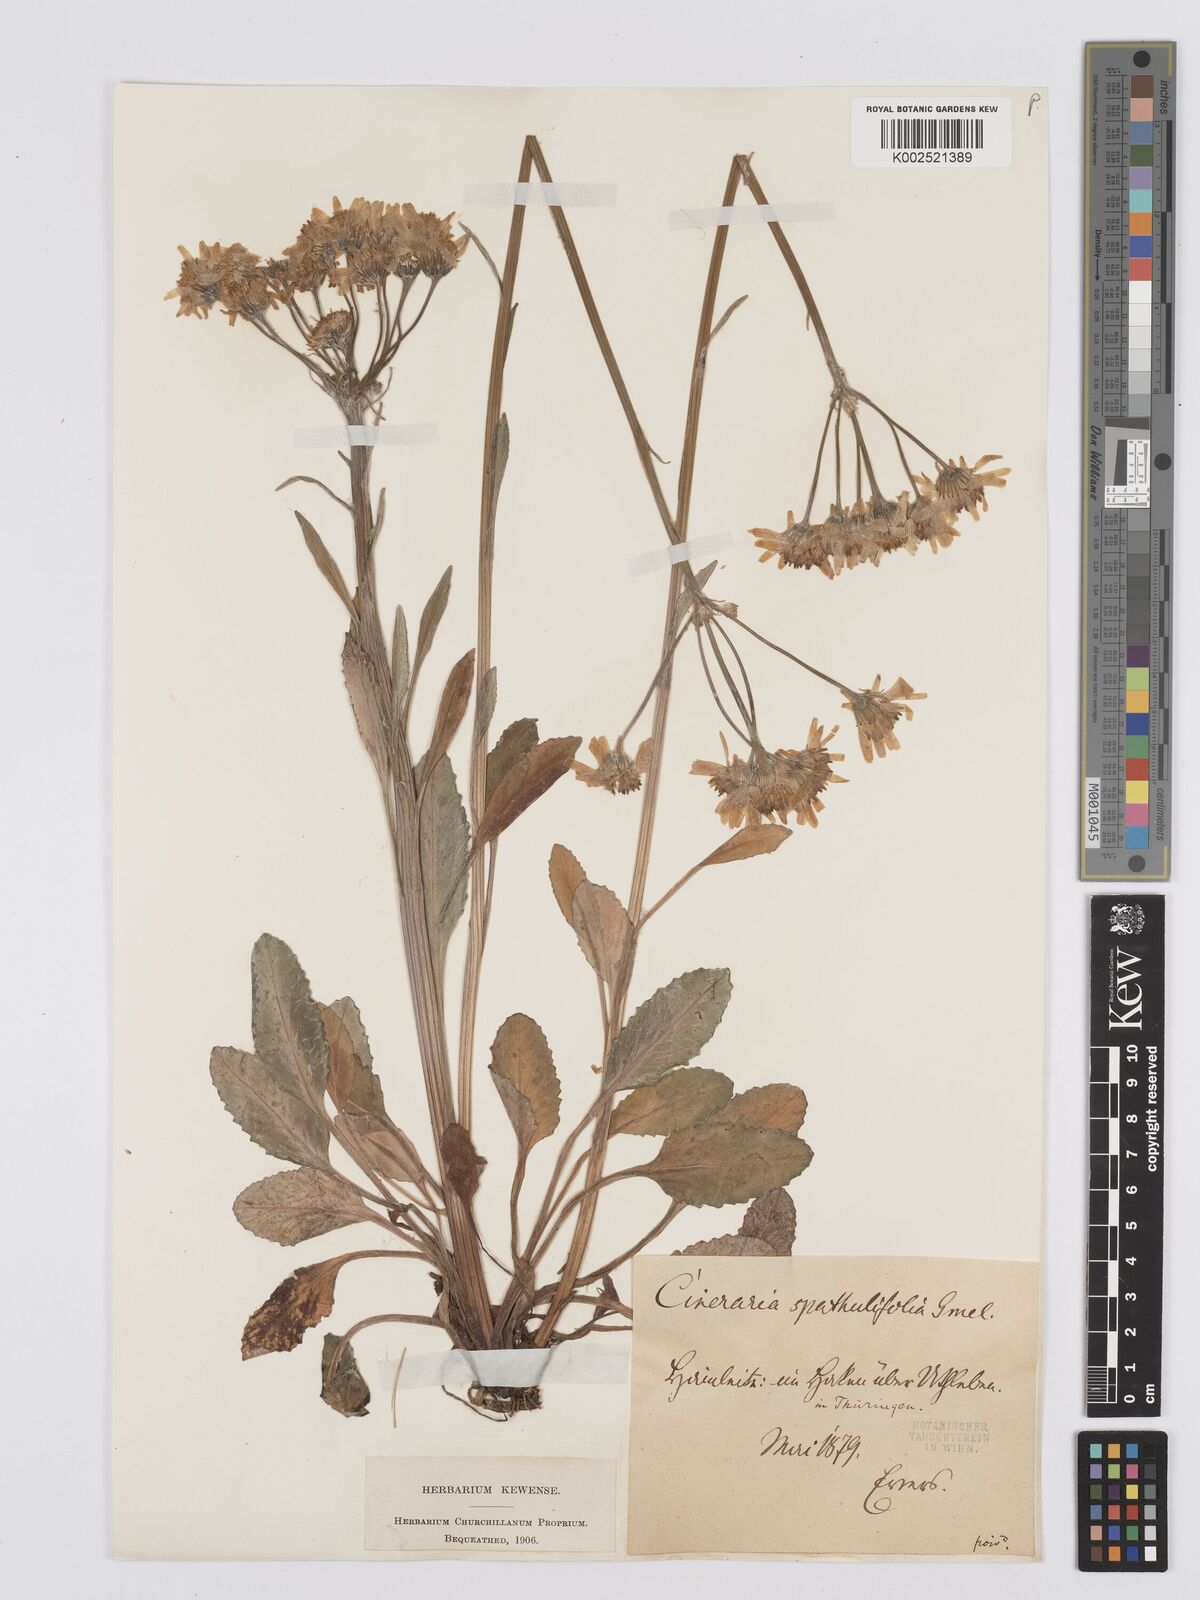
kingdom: Plantae
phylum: Tracheophyta
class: Magnoliopsida
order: Asterales
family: Asteraceae
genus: Tephroseris
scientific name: Tephroseris helenitis
